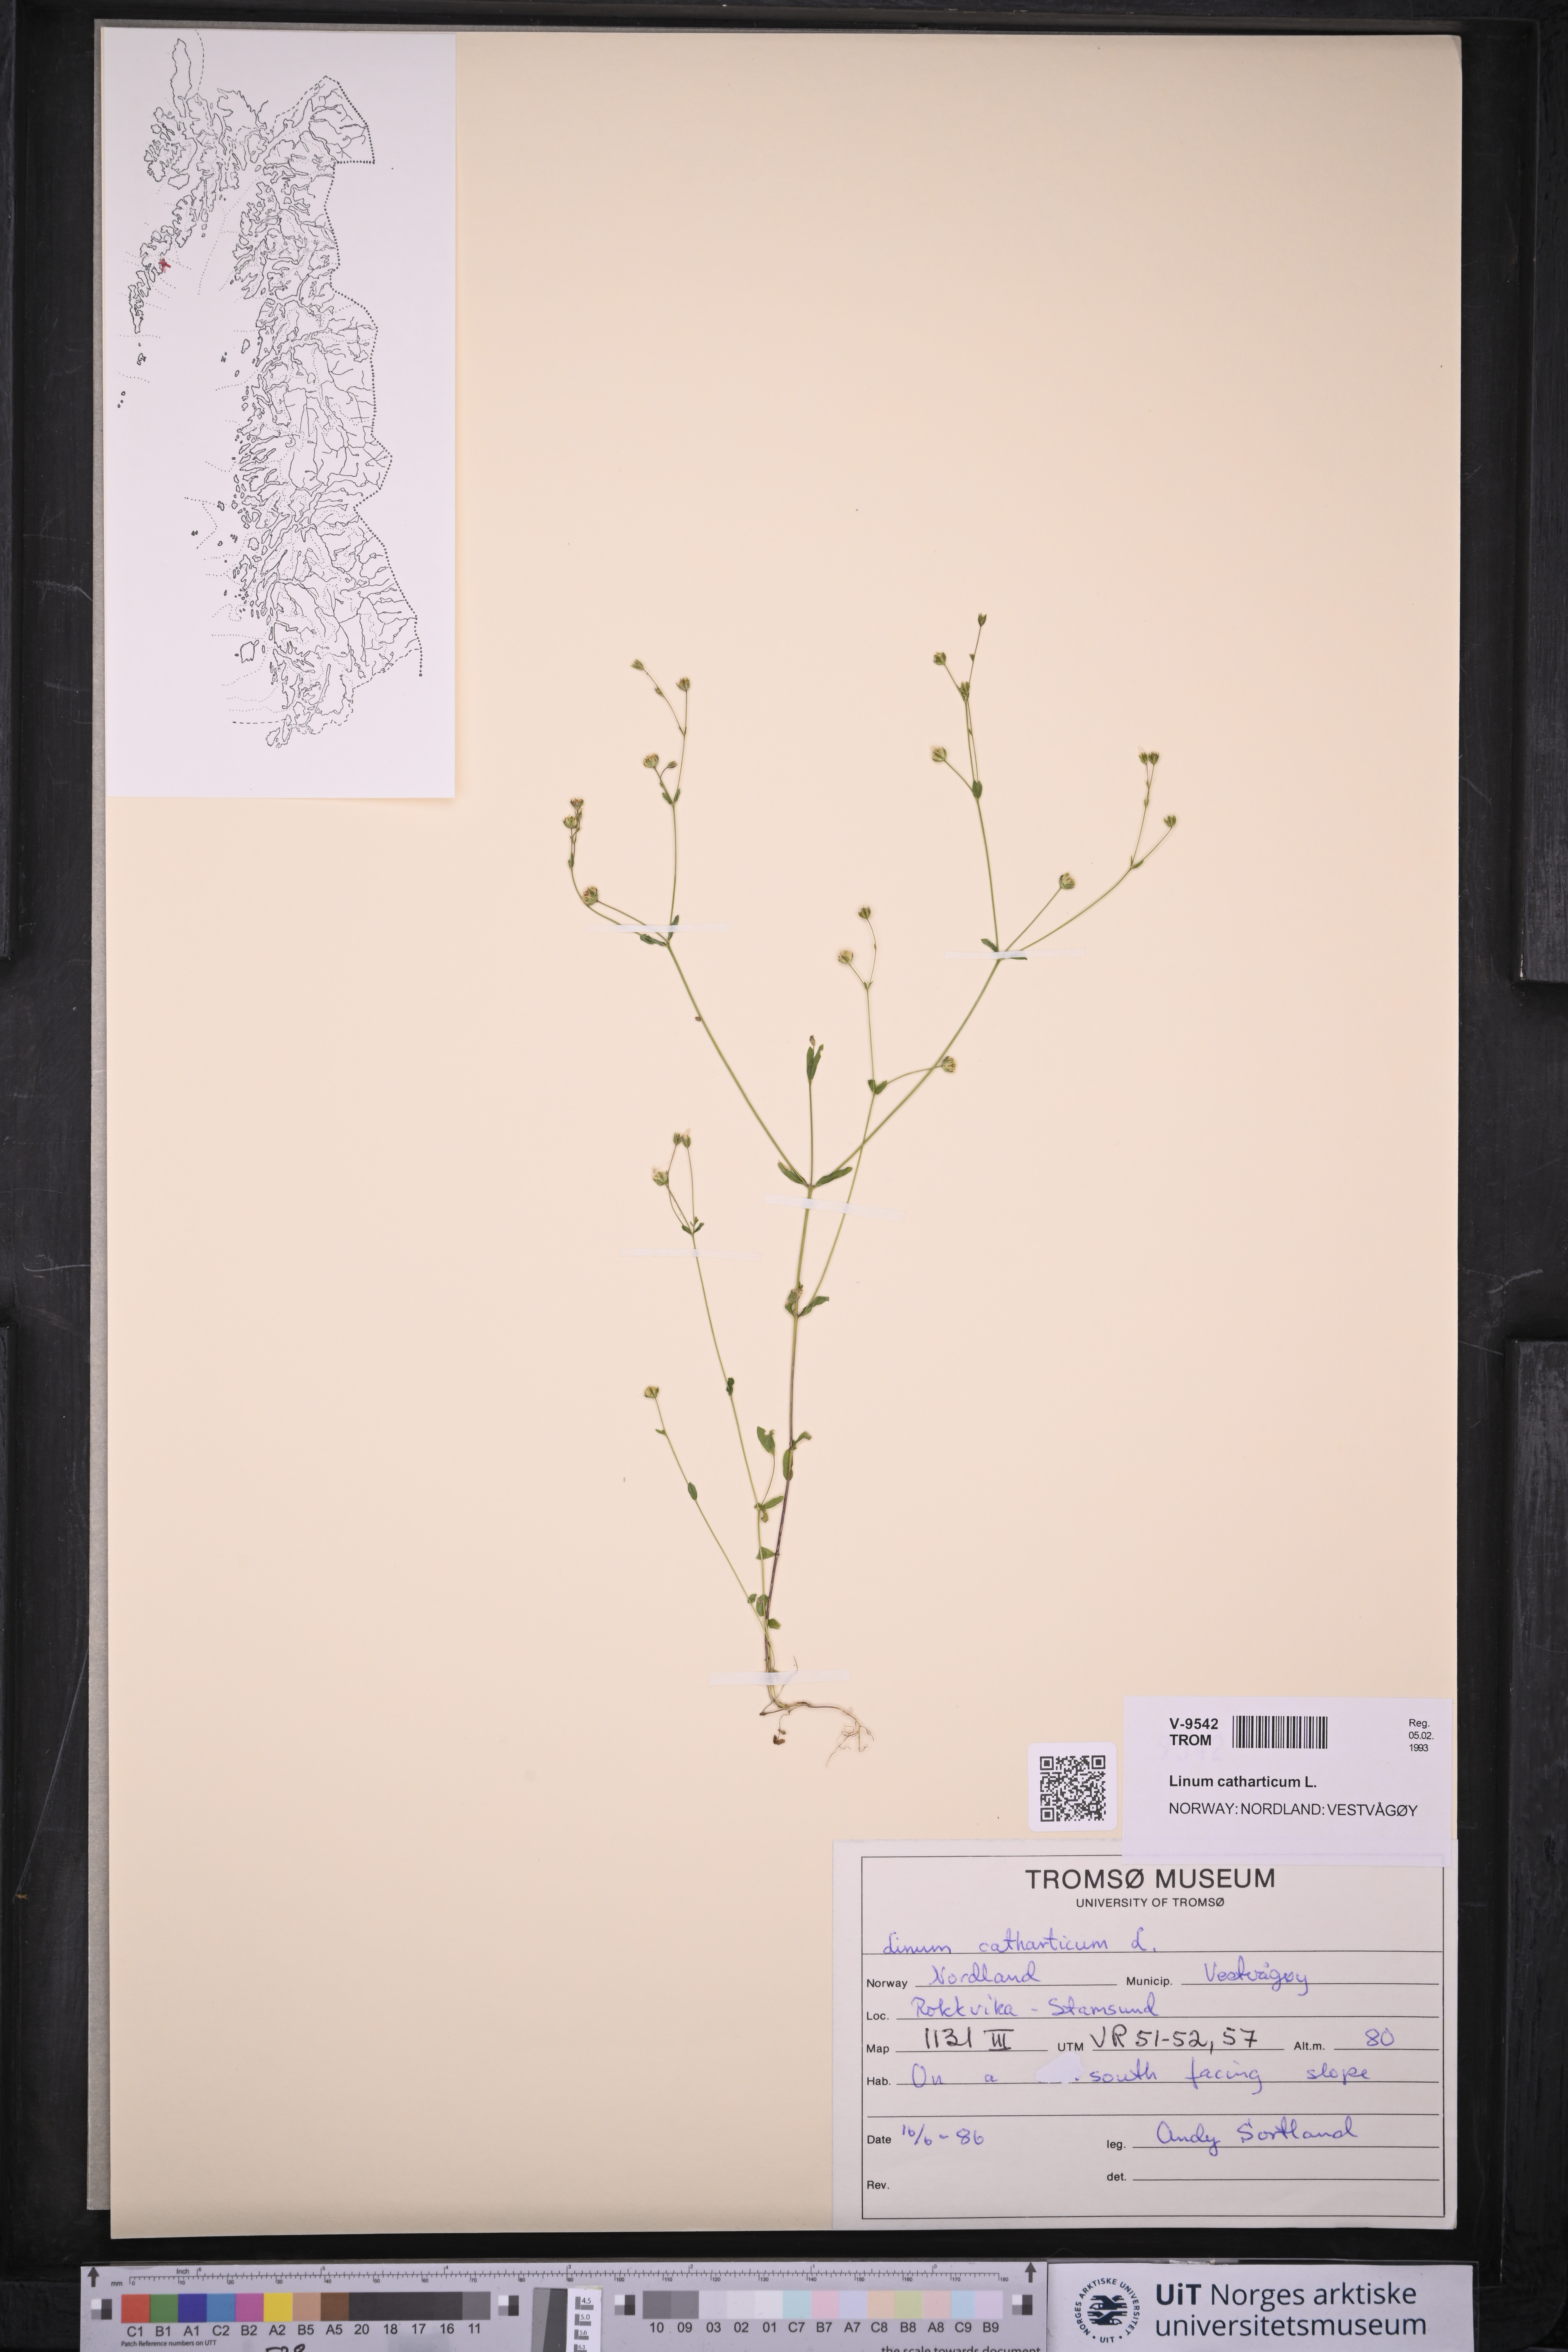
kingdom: Plantae
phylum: Tracheophyta
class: Magnoliopsida
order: Malpighiales
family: Linaceae
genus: Linum
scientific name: Linum catharticum
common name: Fairy flax
